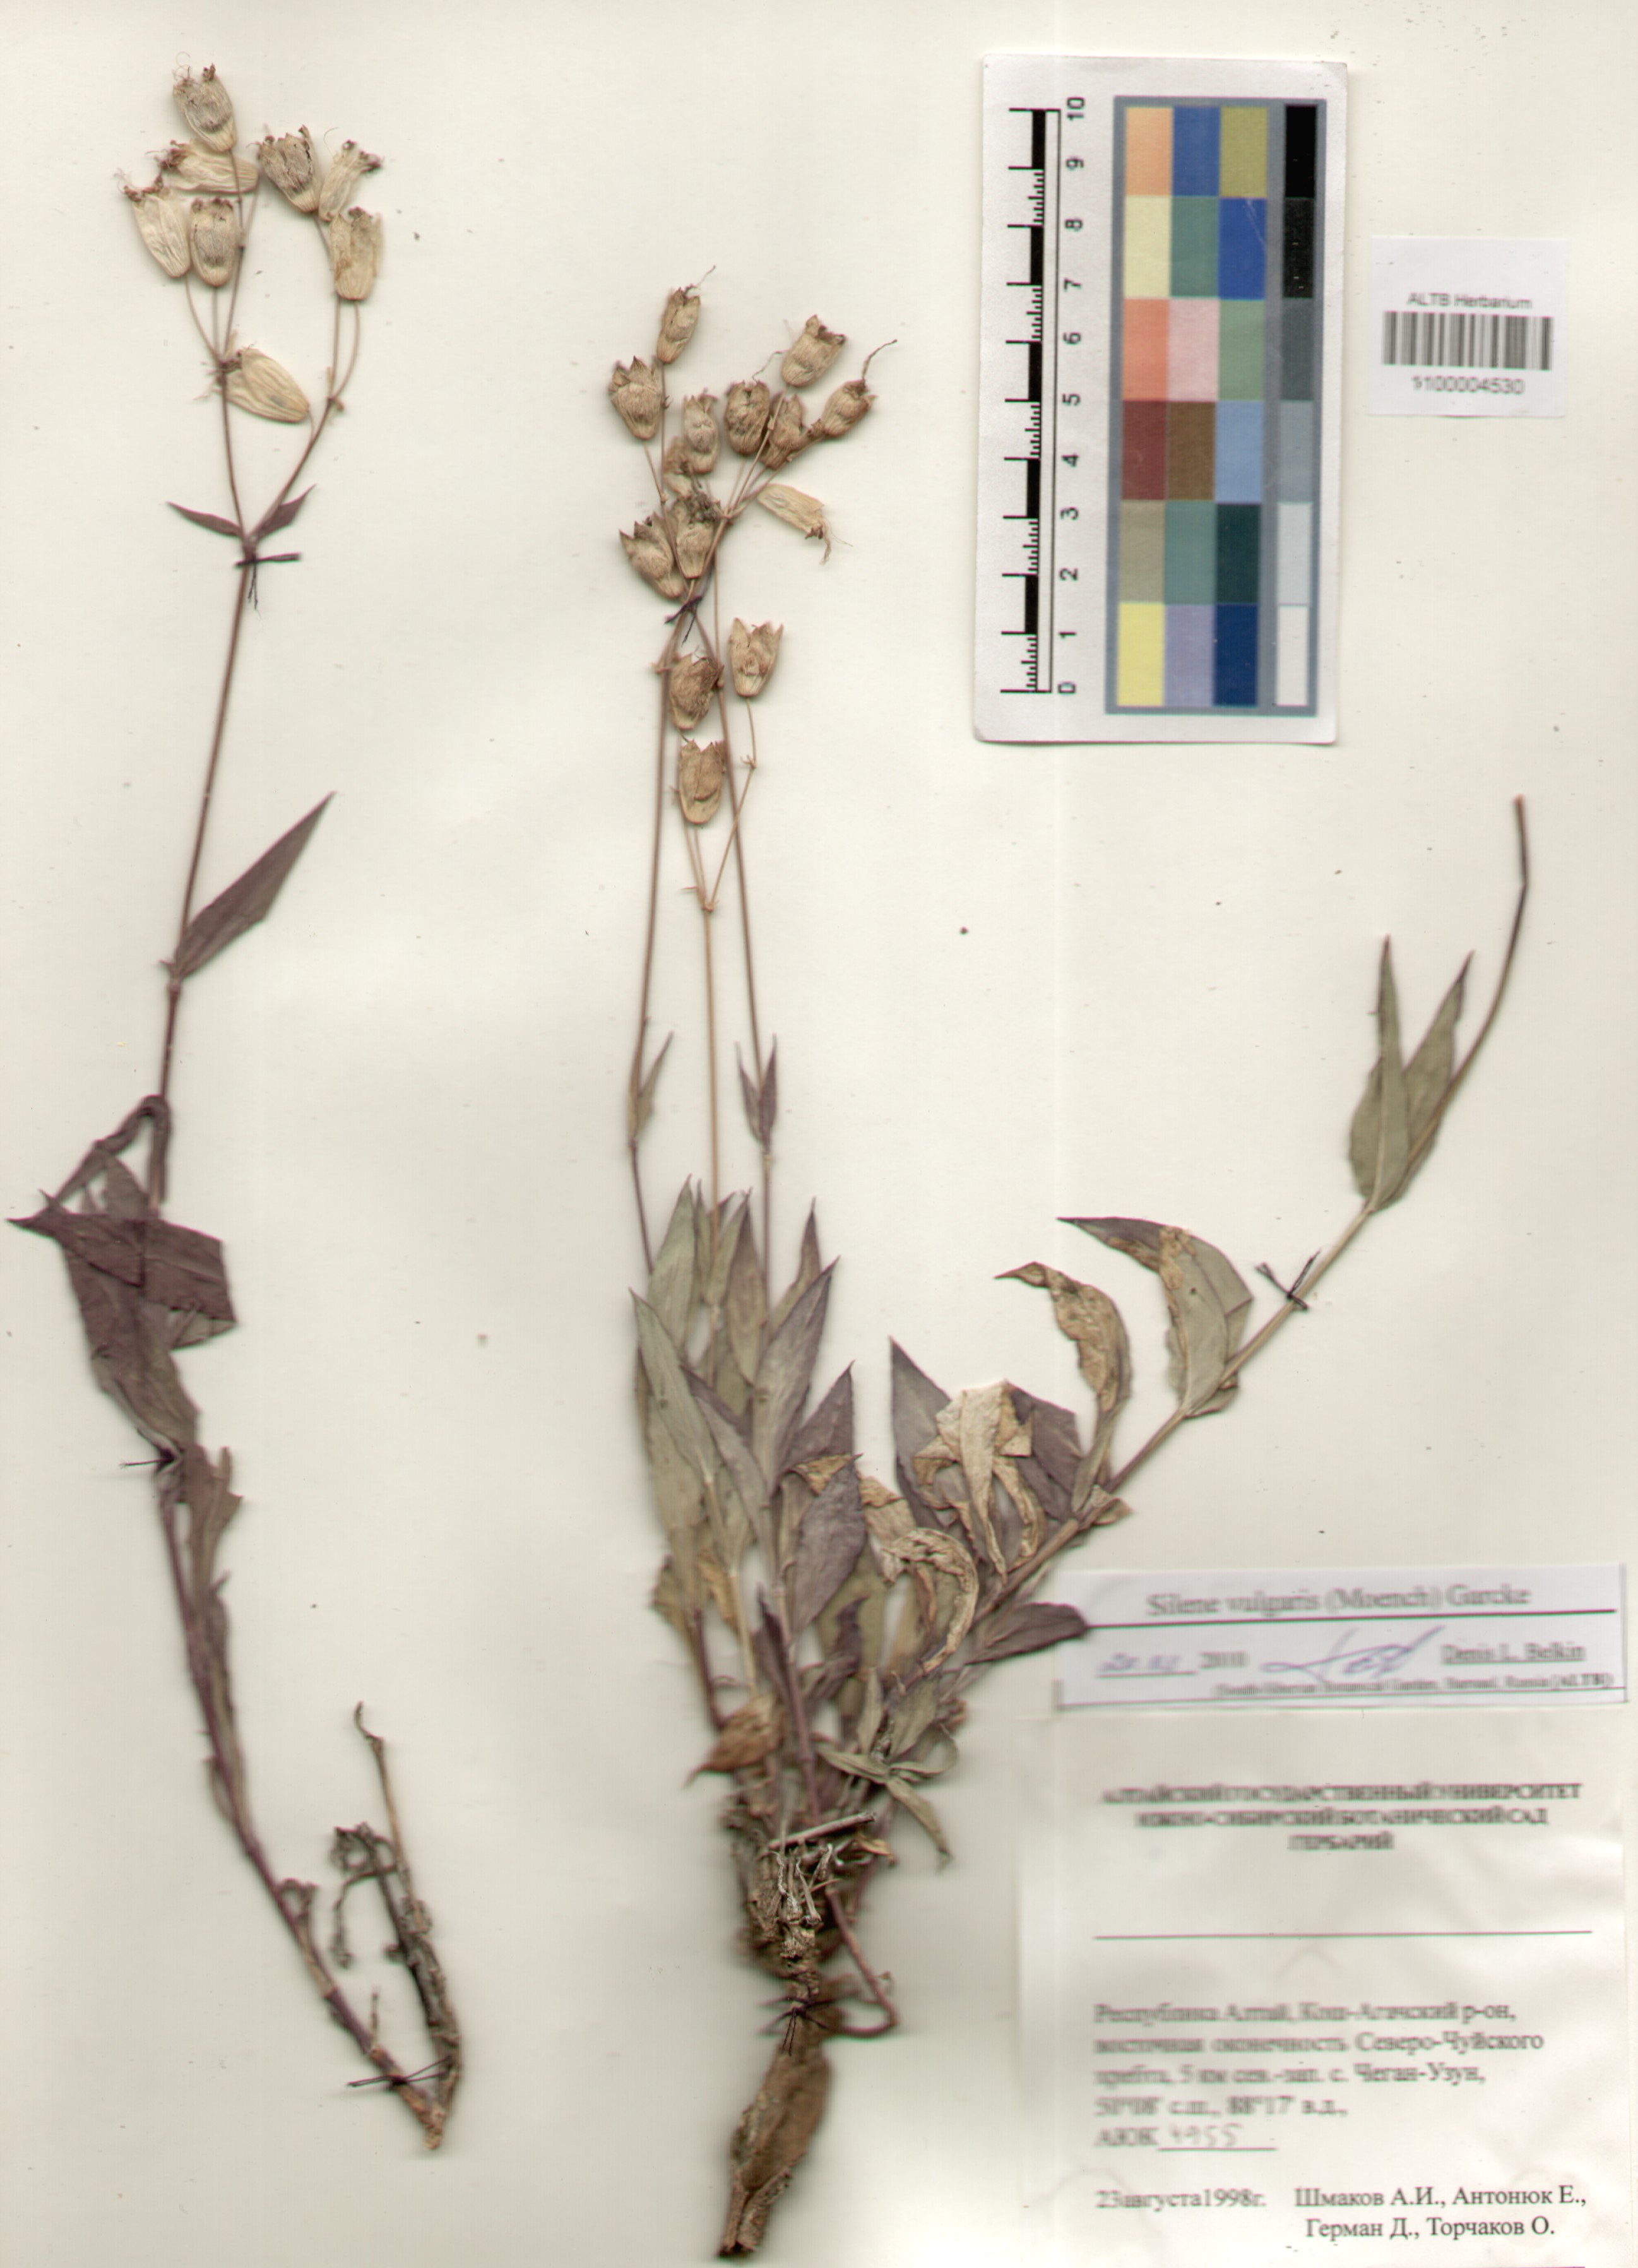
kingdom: Plantae
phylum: Tracheophyta
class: Magnoliopsida
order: Caryophyllales
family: Caryophyllaceae
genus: Silene
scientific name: Silene vulgaris
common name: Bladder campion
